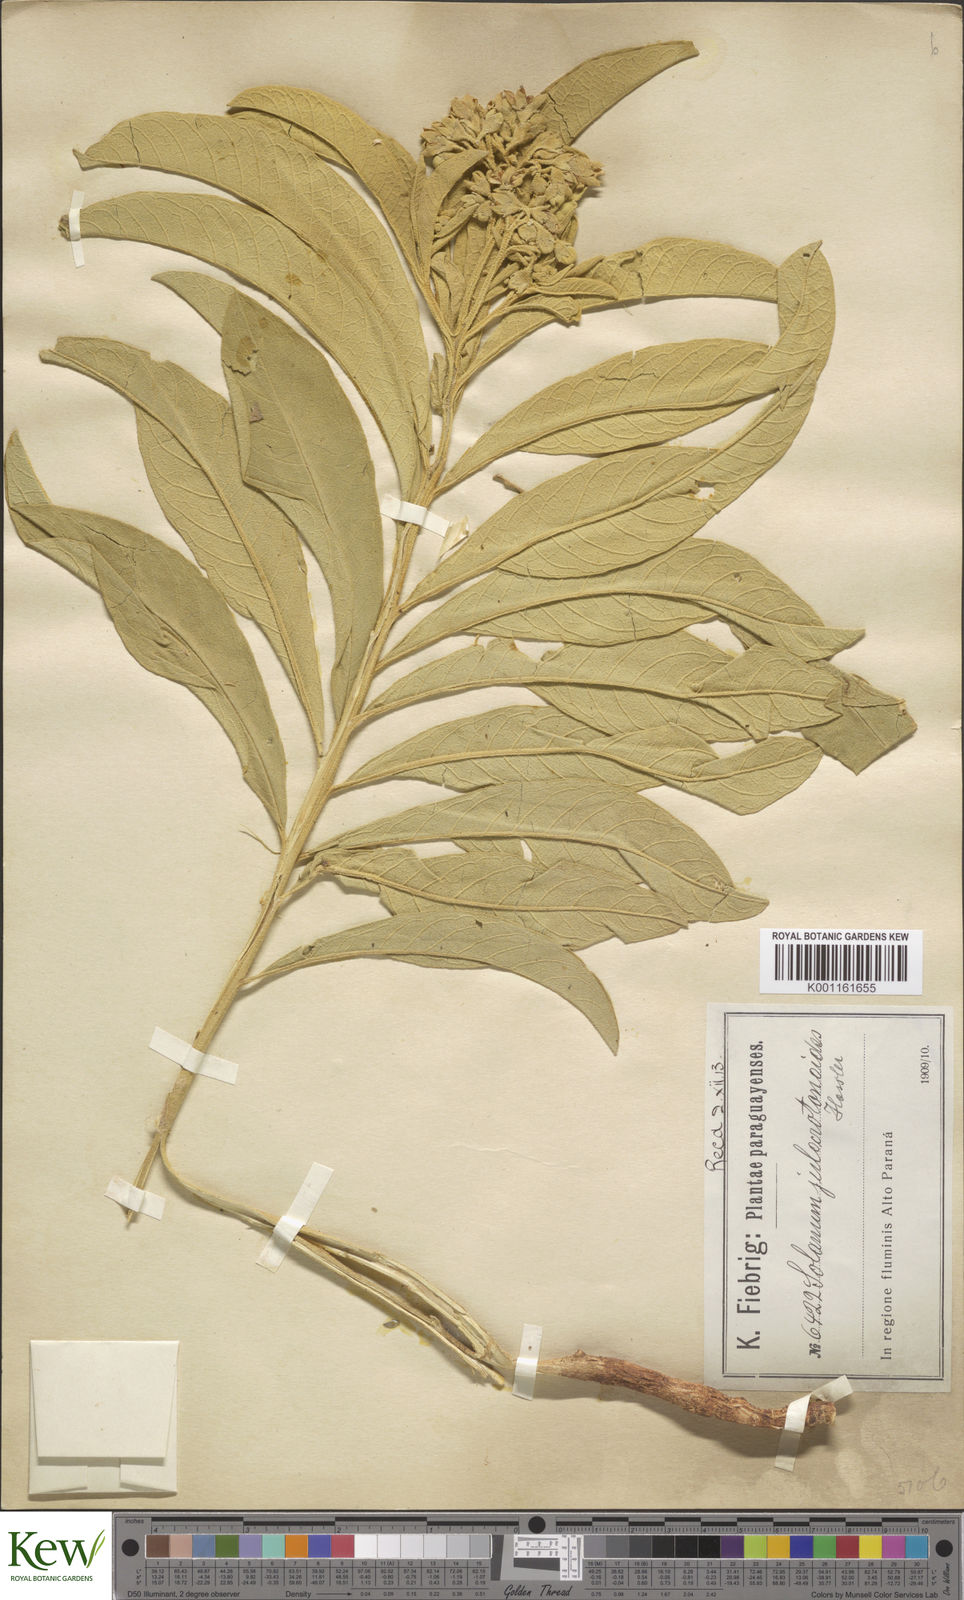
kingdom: Plantae
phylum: Tracheophyta
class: Magnoliopsida
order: Solanales
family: Solanaceae
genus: Solanum
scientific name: Solanum julocrotonoides
